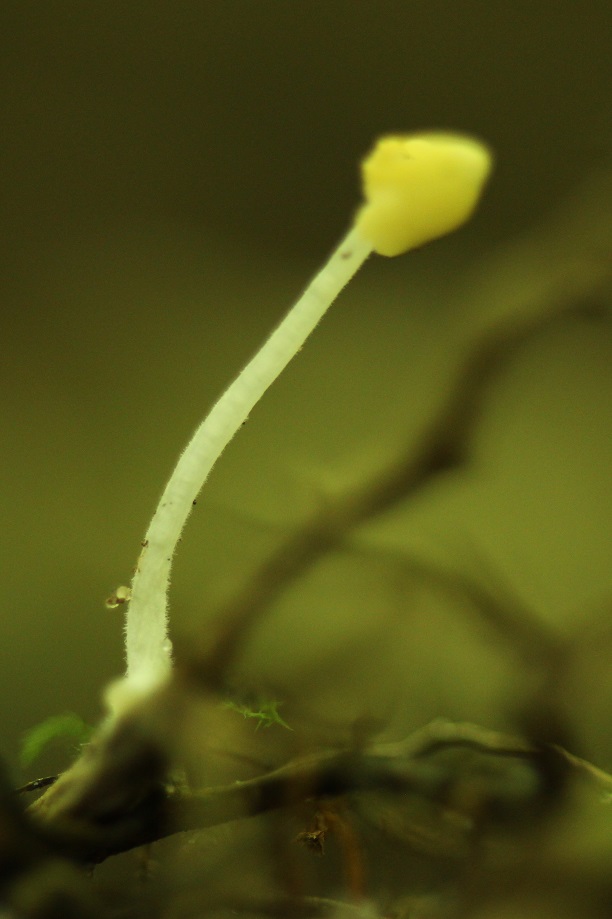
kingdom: Fungi
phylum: Basidiomycota
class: Agaricomycetes
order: Agaricales
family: Tricholomataceae
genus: Delicatula
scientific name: Delicatula integrella
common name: slørhuesvamp
